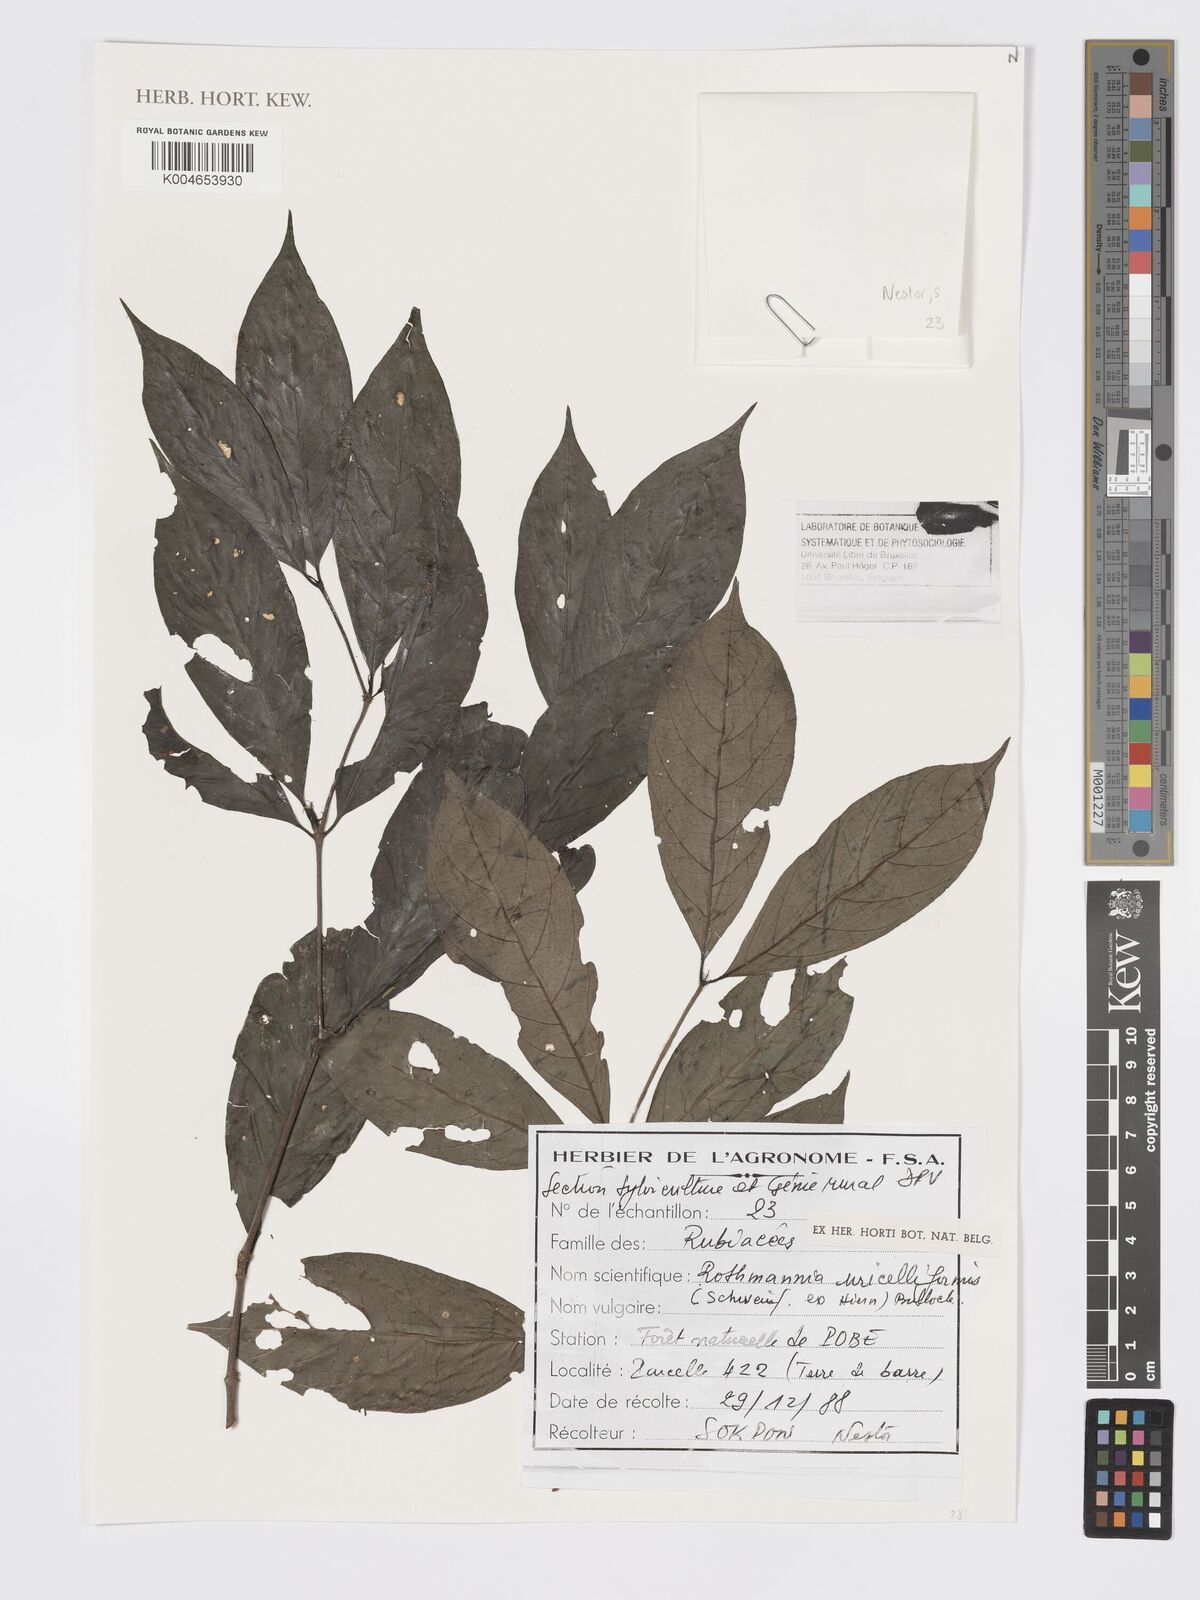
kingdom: Plantae
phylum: Tracheophyta
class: Magnoliopsida
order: Gentianales
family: Rubiaceae
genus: Rothmannia
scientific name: Rothmannia urcelliformis
